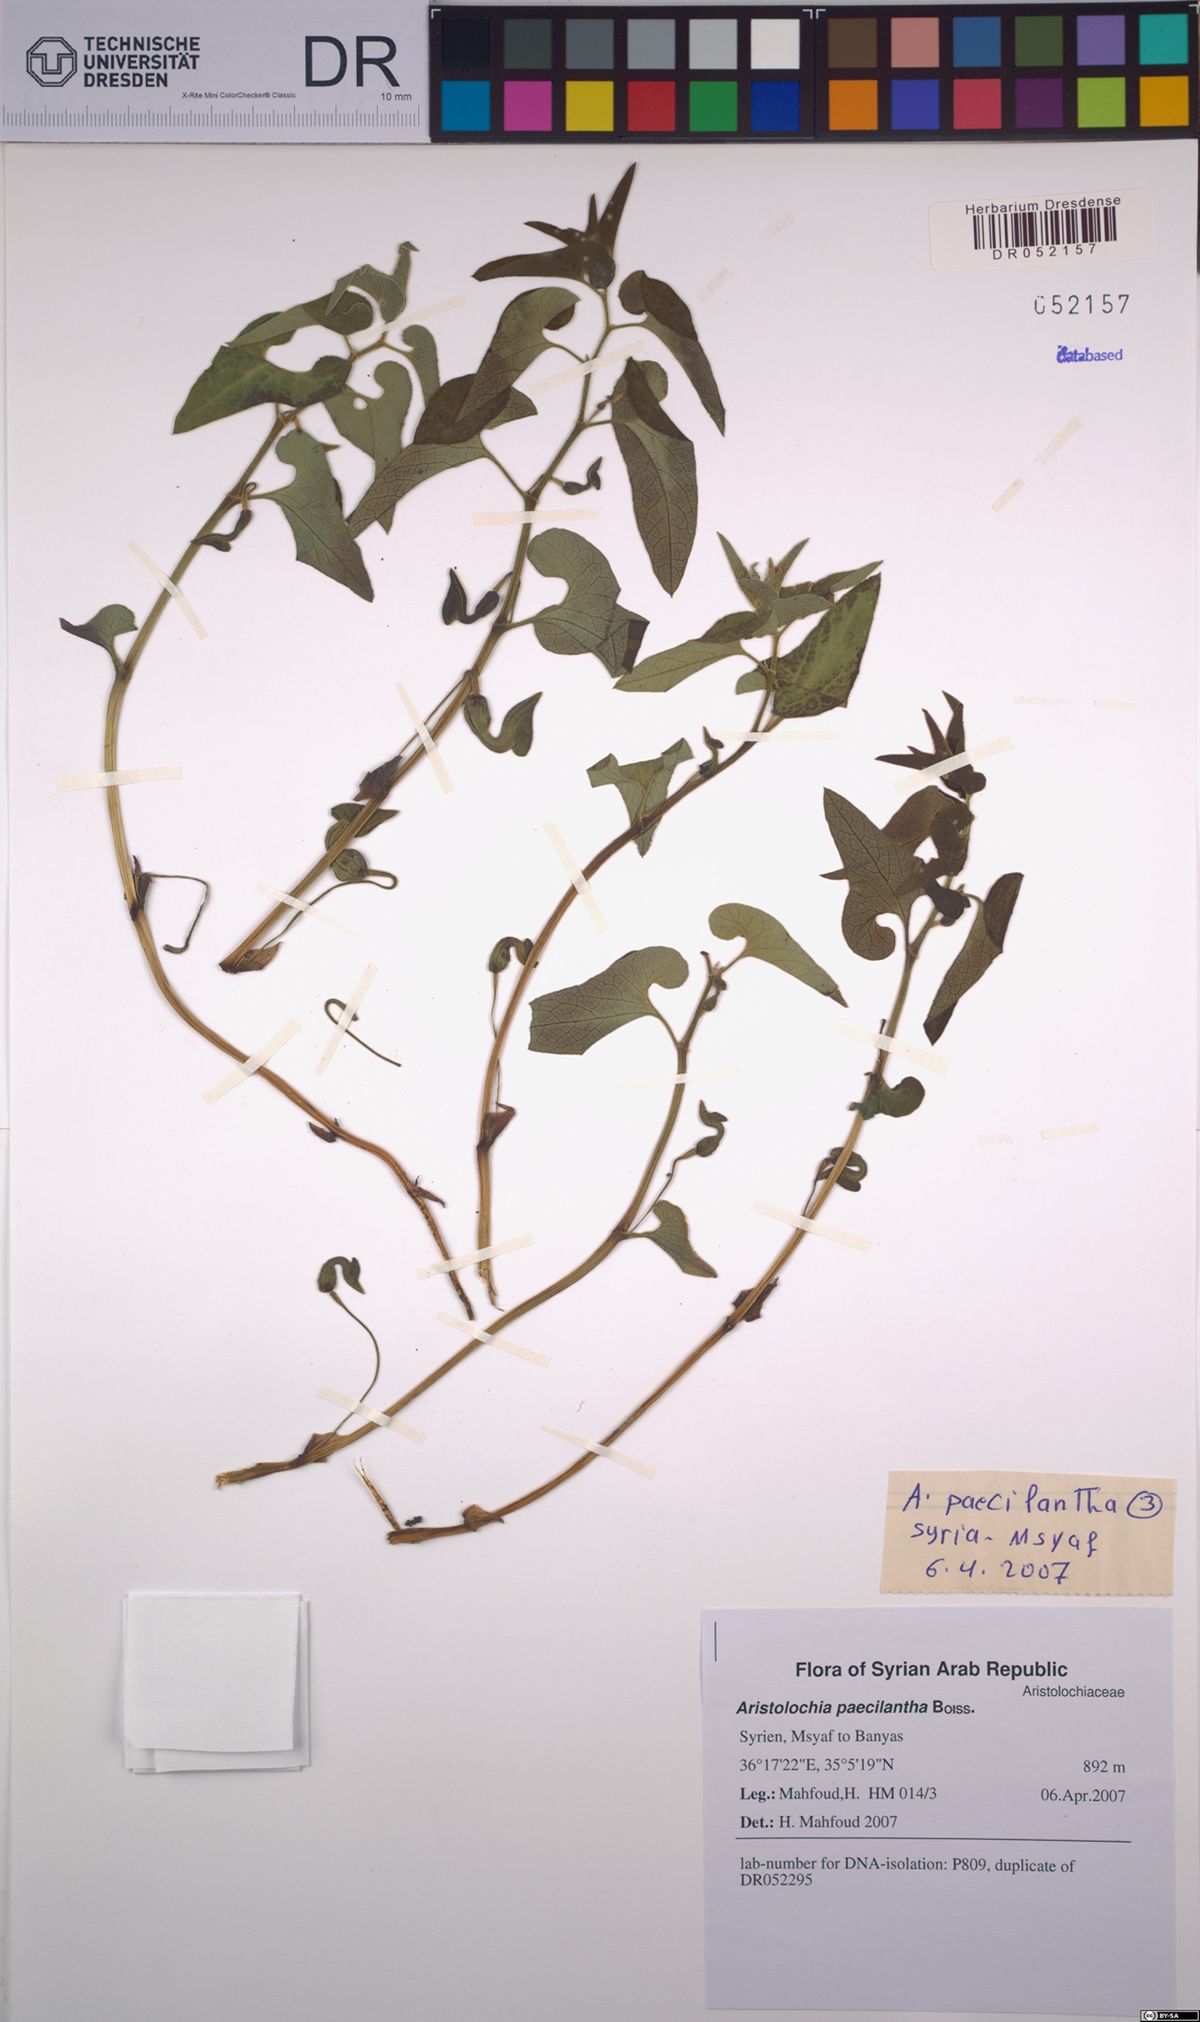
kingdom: Plantae
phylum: Tracheophyta
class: Magnoliopsida
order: Piperales
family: Aristolochiaceae
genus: Aristolochia
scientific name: Aristolochia paecilantha
